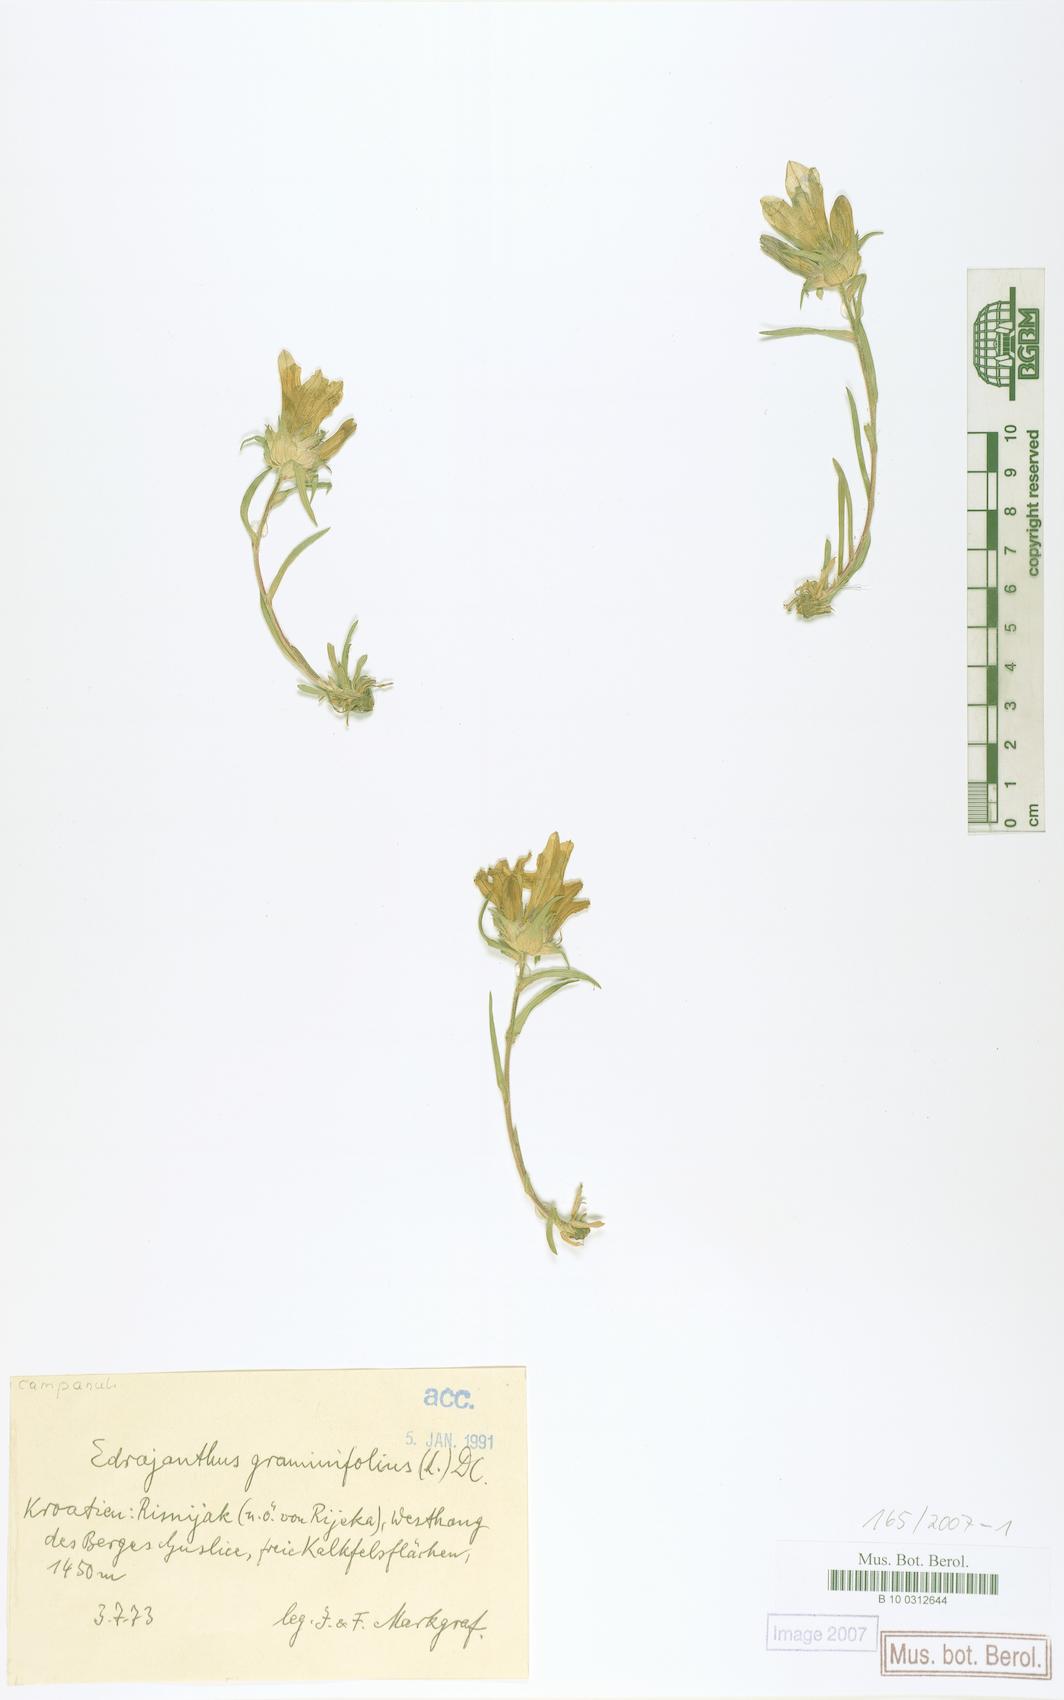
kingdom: Plantae
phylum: Tracheophyta
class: Magnoliopsida
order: Asterales
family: Campanulaceae
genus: Edraianthus
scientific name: Edraianthus graminifolius
